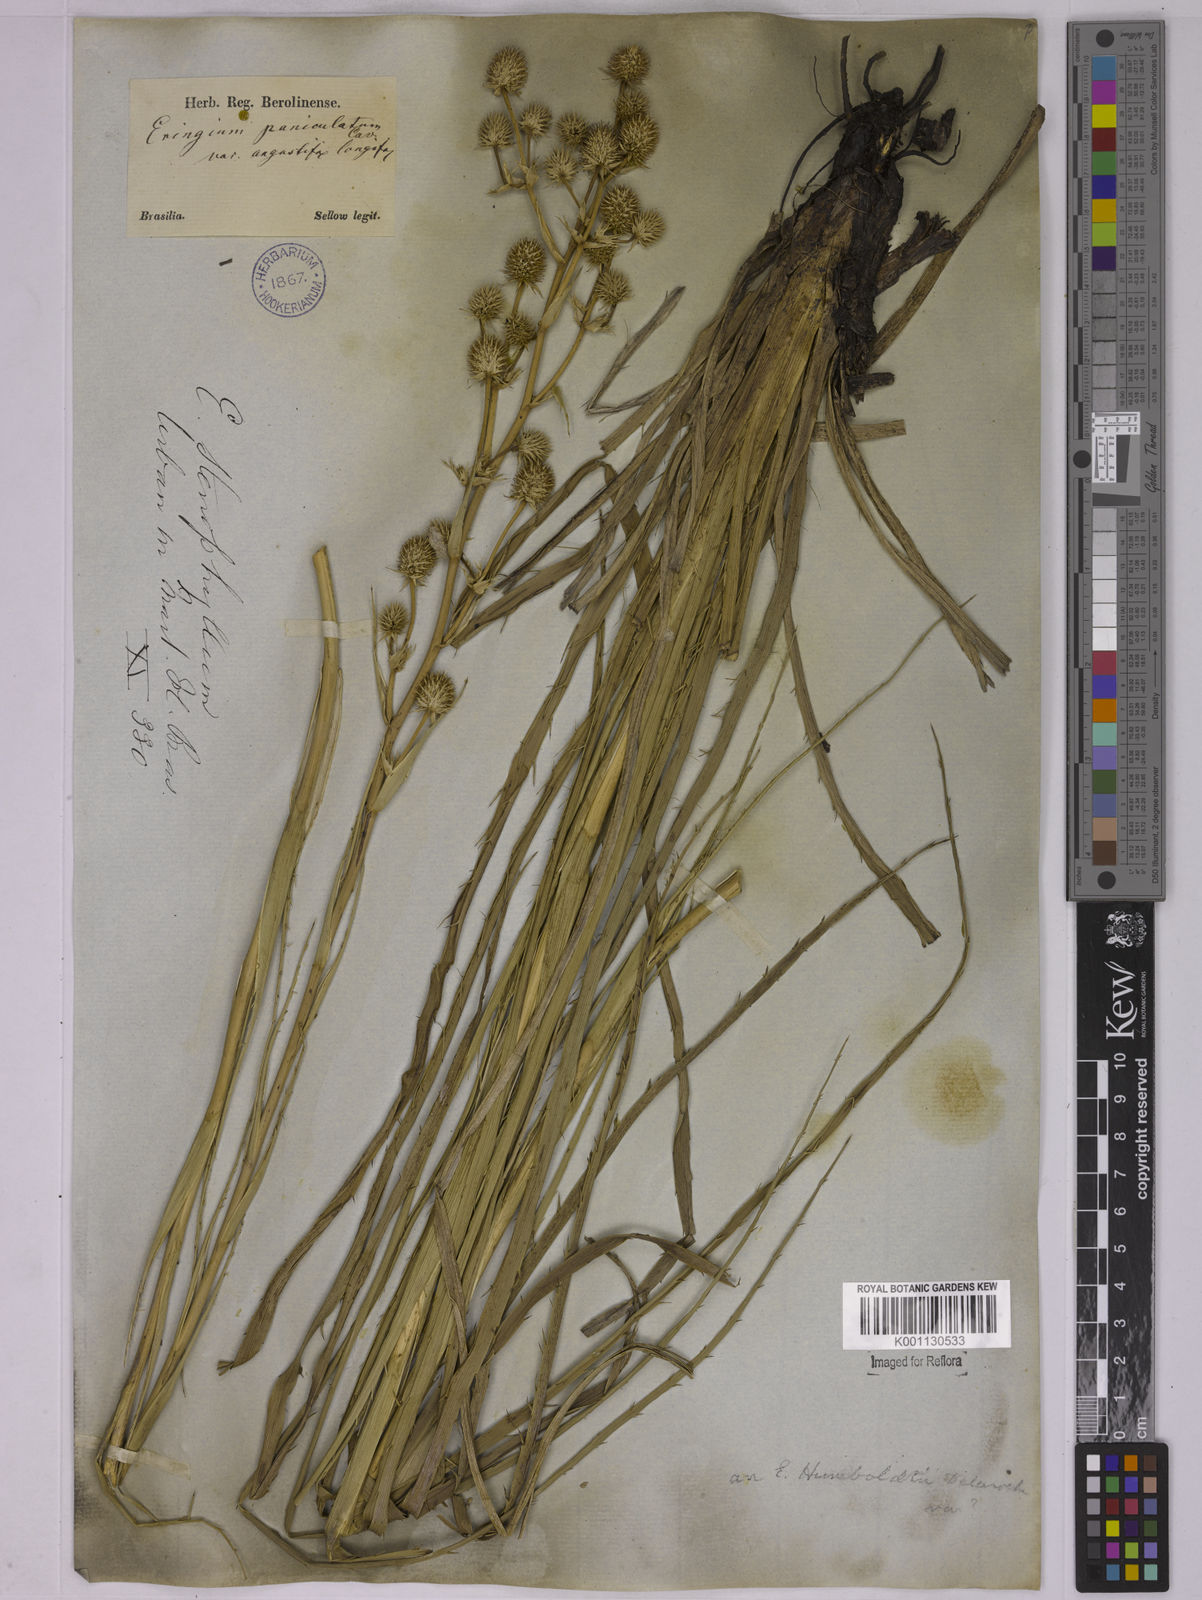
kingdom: Plantae
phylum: Tracheophyta
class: Magnoliopsida
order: Apiales
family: Apiaceae
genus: Eryngium
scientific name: Eryngium stenophyllum
